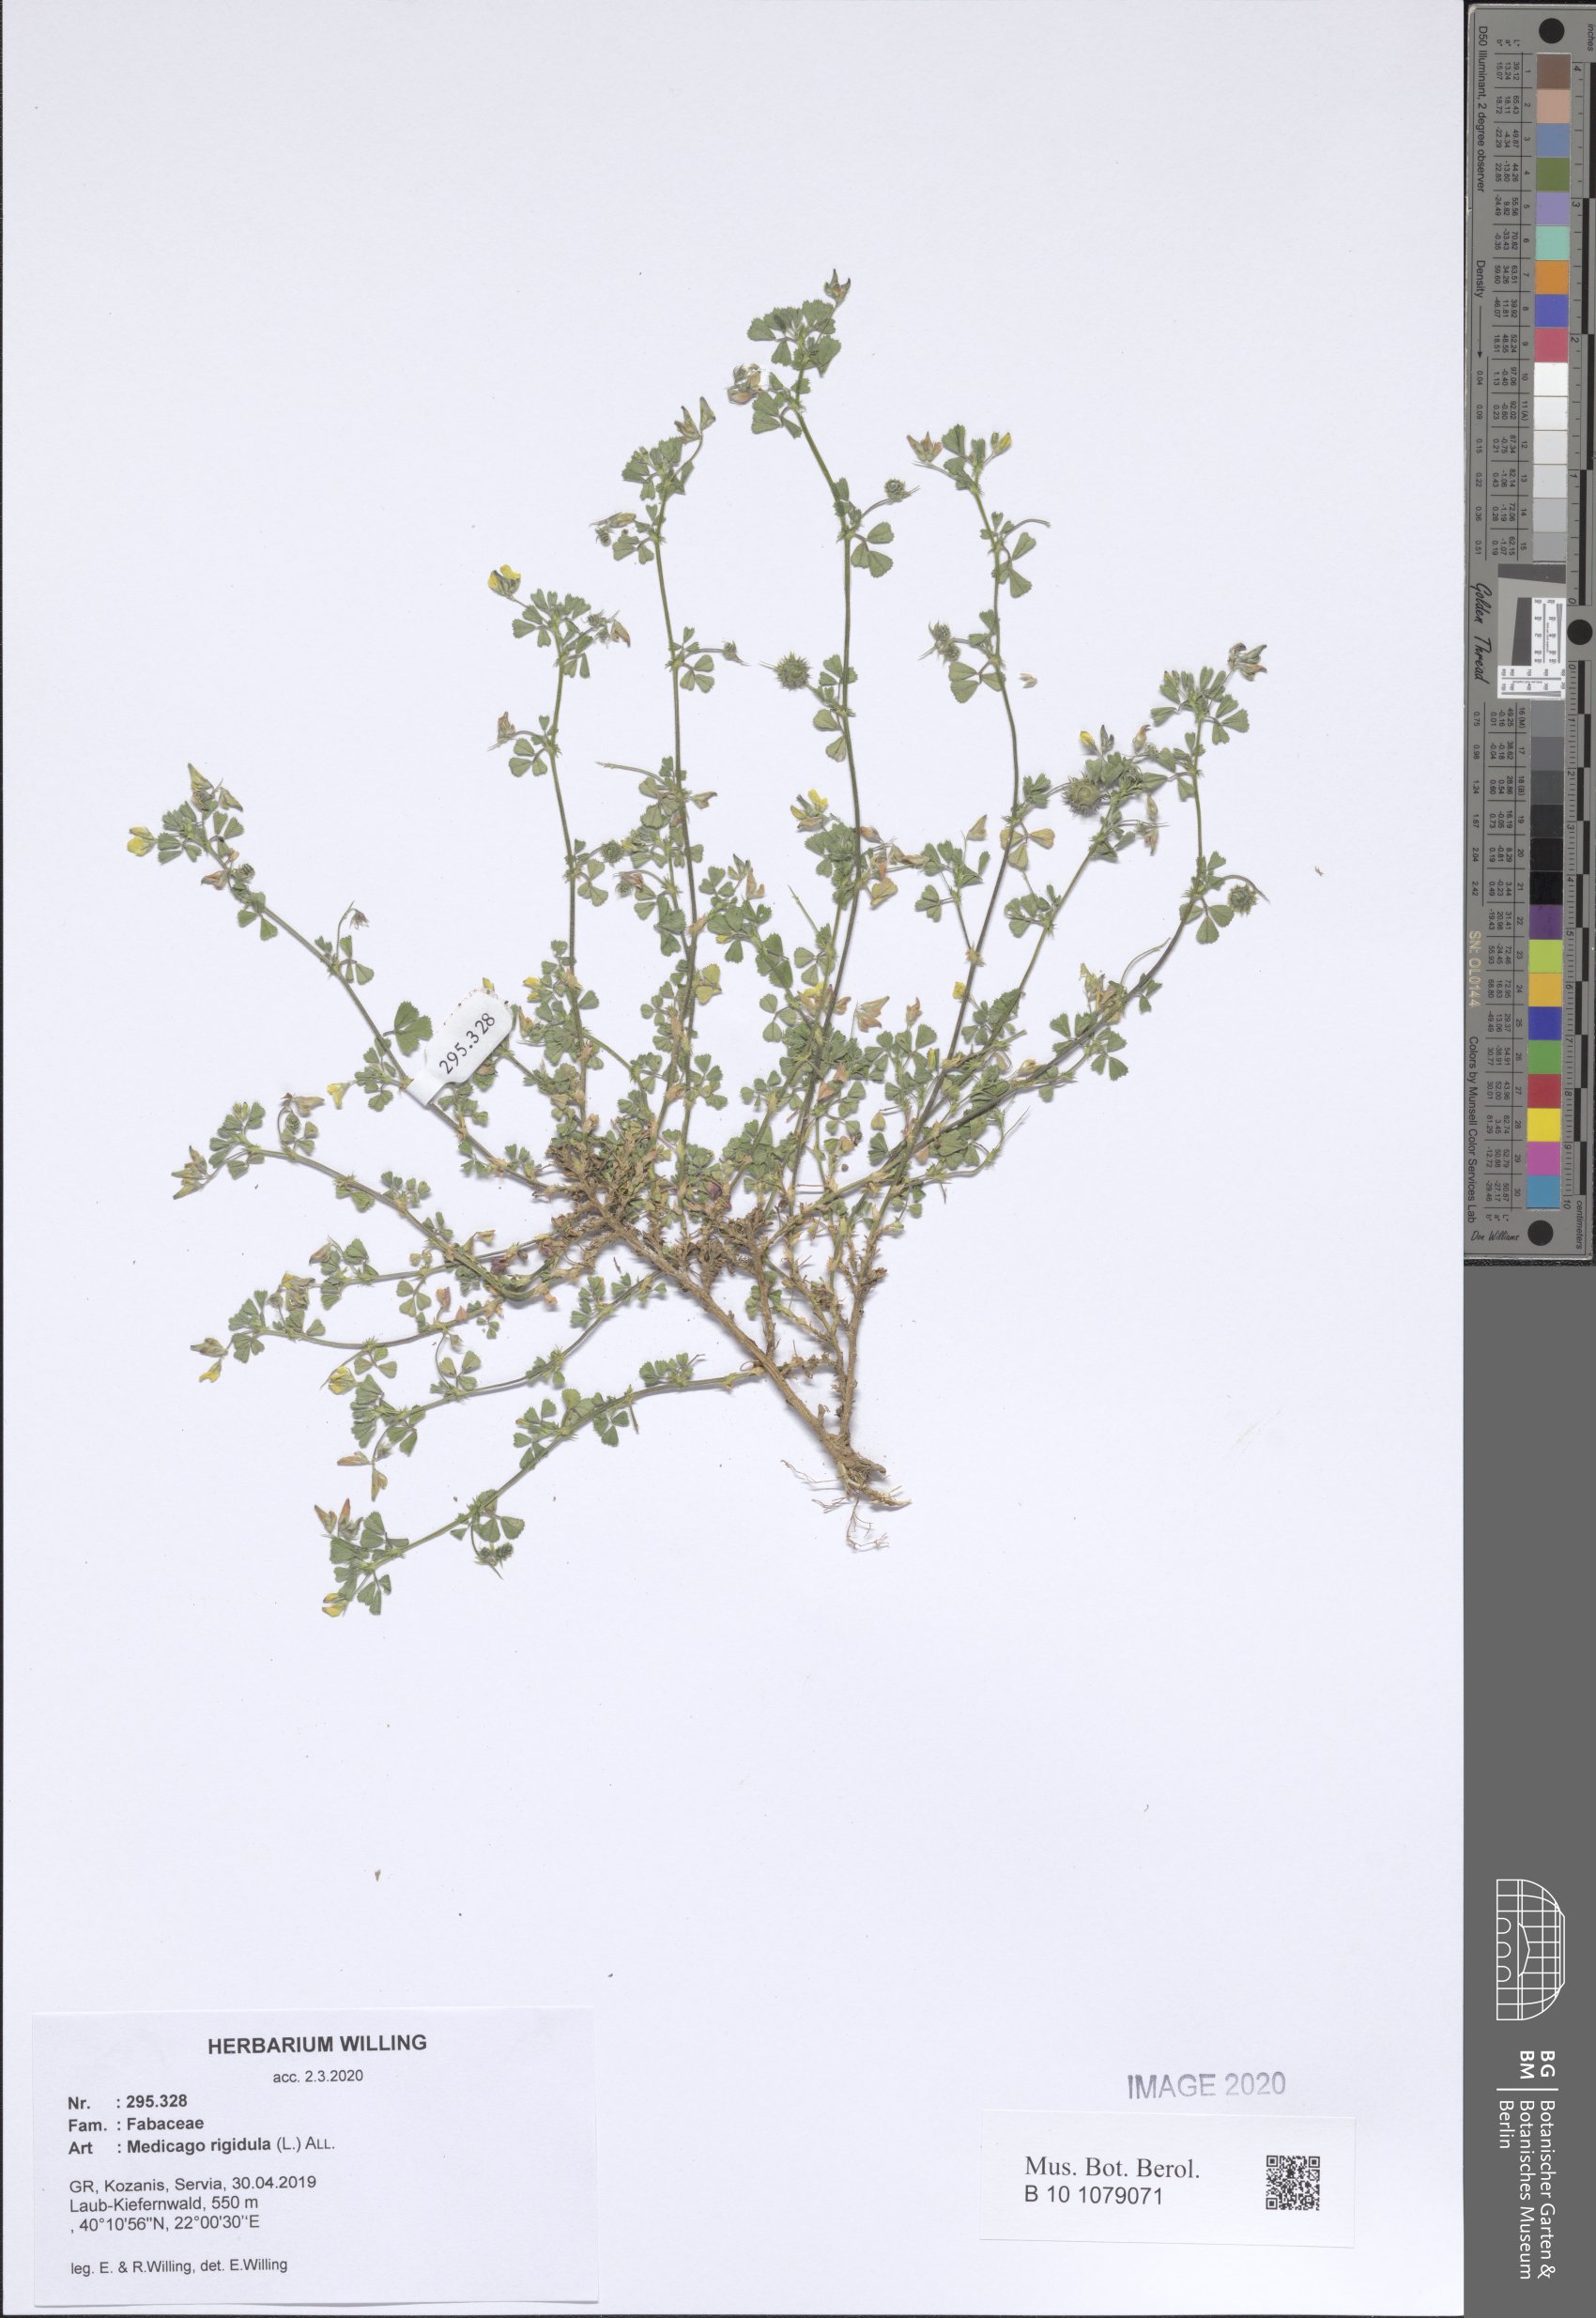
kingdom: Plantae
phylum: Tracheophyta
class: Magnoliopsida
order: Fabales
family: Fabaceae
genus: Medicago
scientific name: Medicago rigidula
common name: Tifton medic
